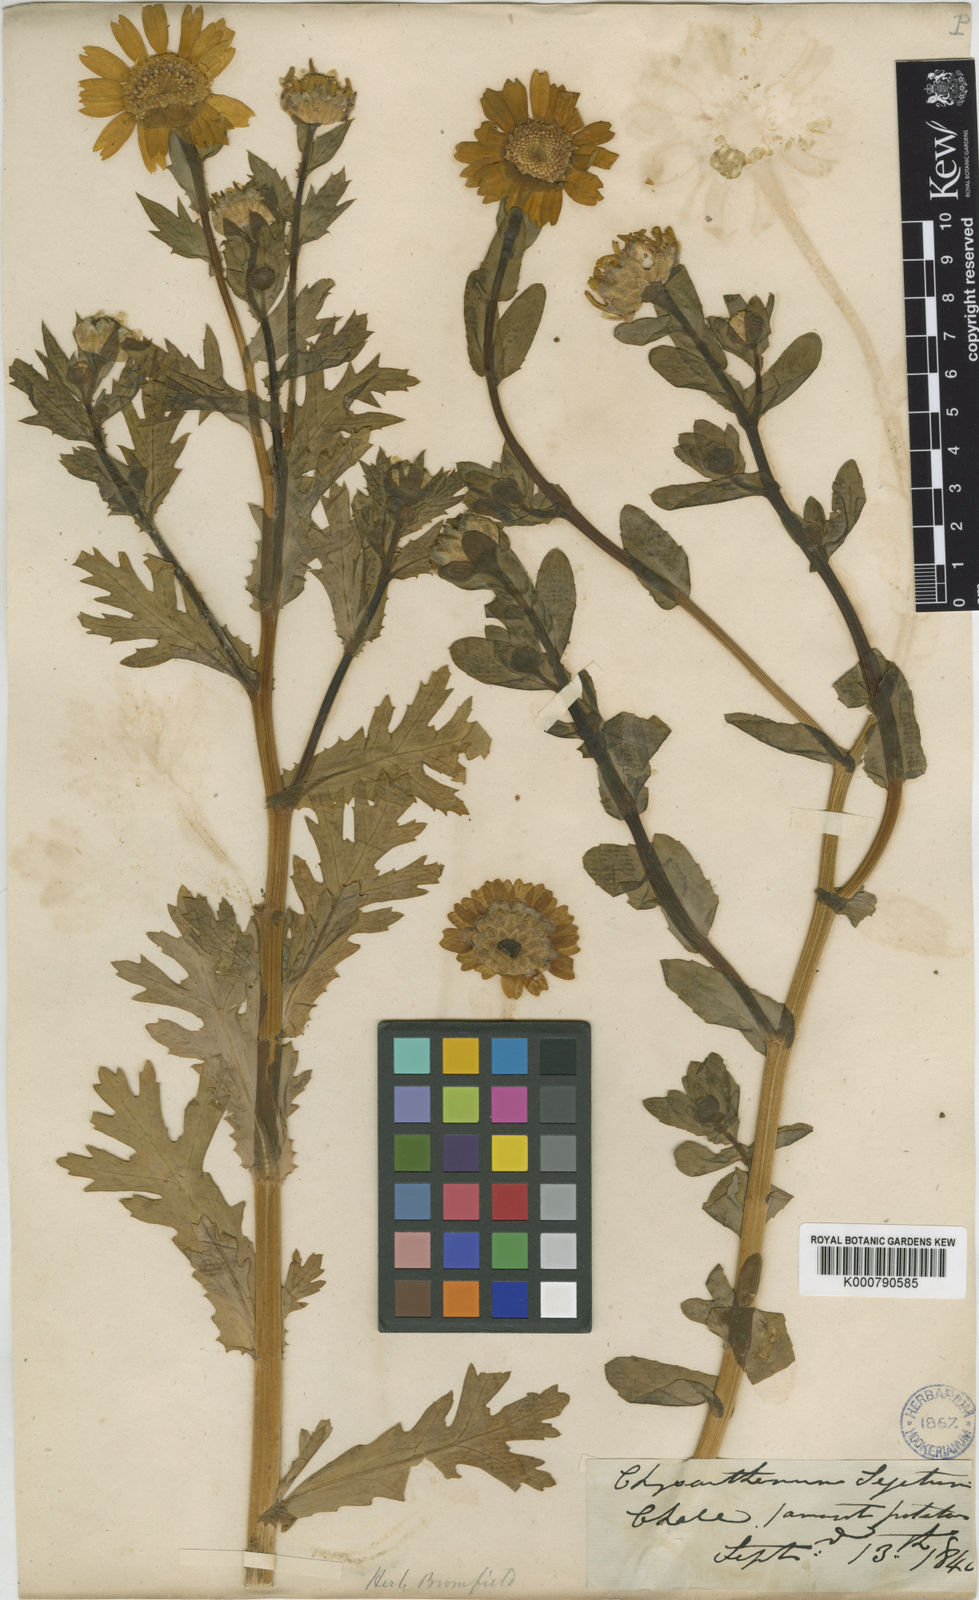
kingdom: Plantae
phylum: Tracheophyta
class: Magnoliopsida
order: Asterales
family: Asteraceae
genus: Glebionis
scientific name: Glebionis
